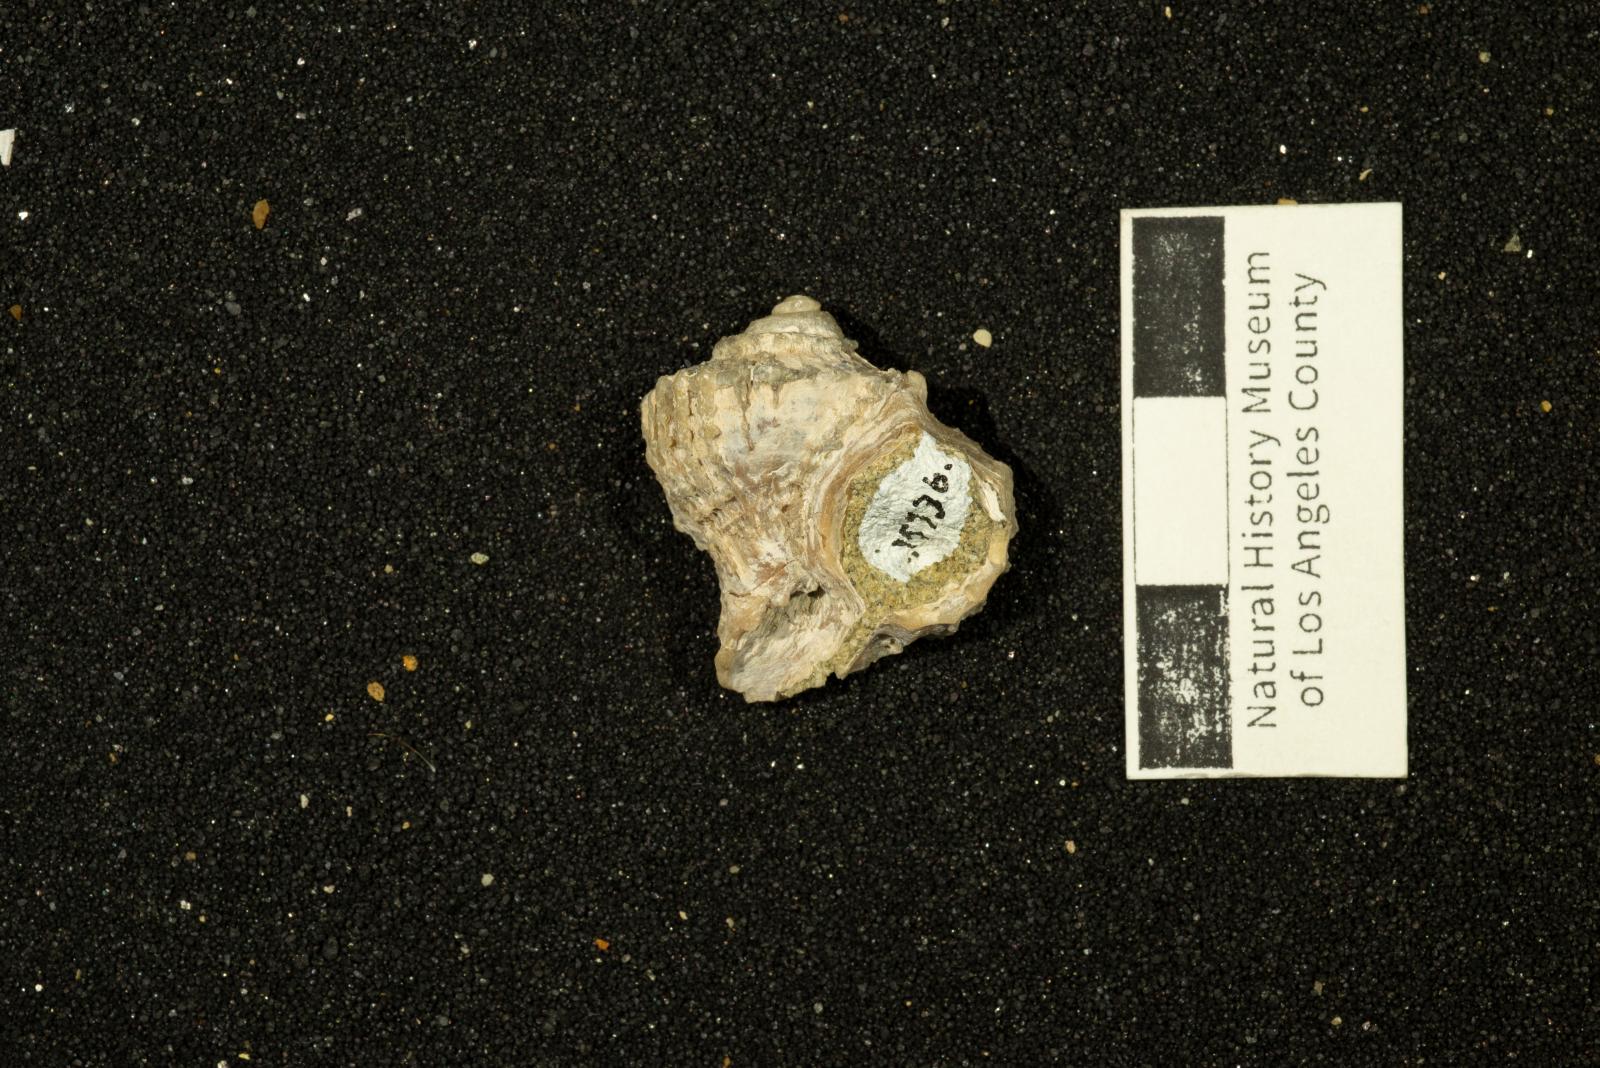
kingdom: Animalia
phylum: Mollusca
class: Gastropoda
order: Neogastropoda
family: Sarganidae
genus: Praesargana
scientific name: Praesargana Trophon condoni
